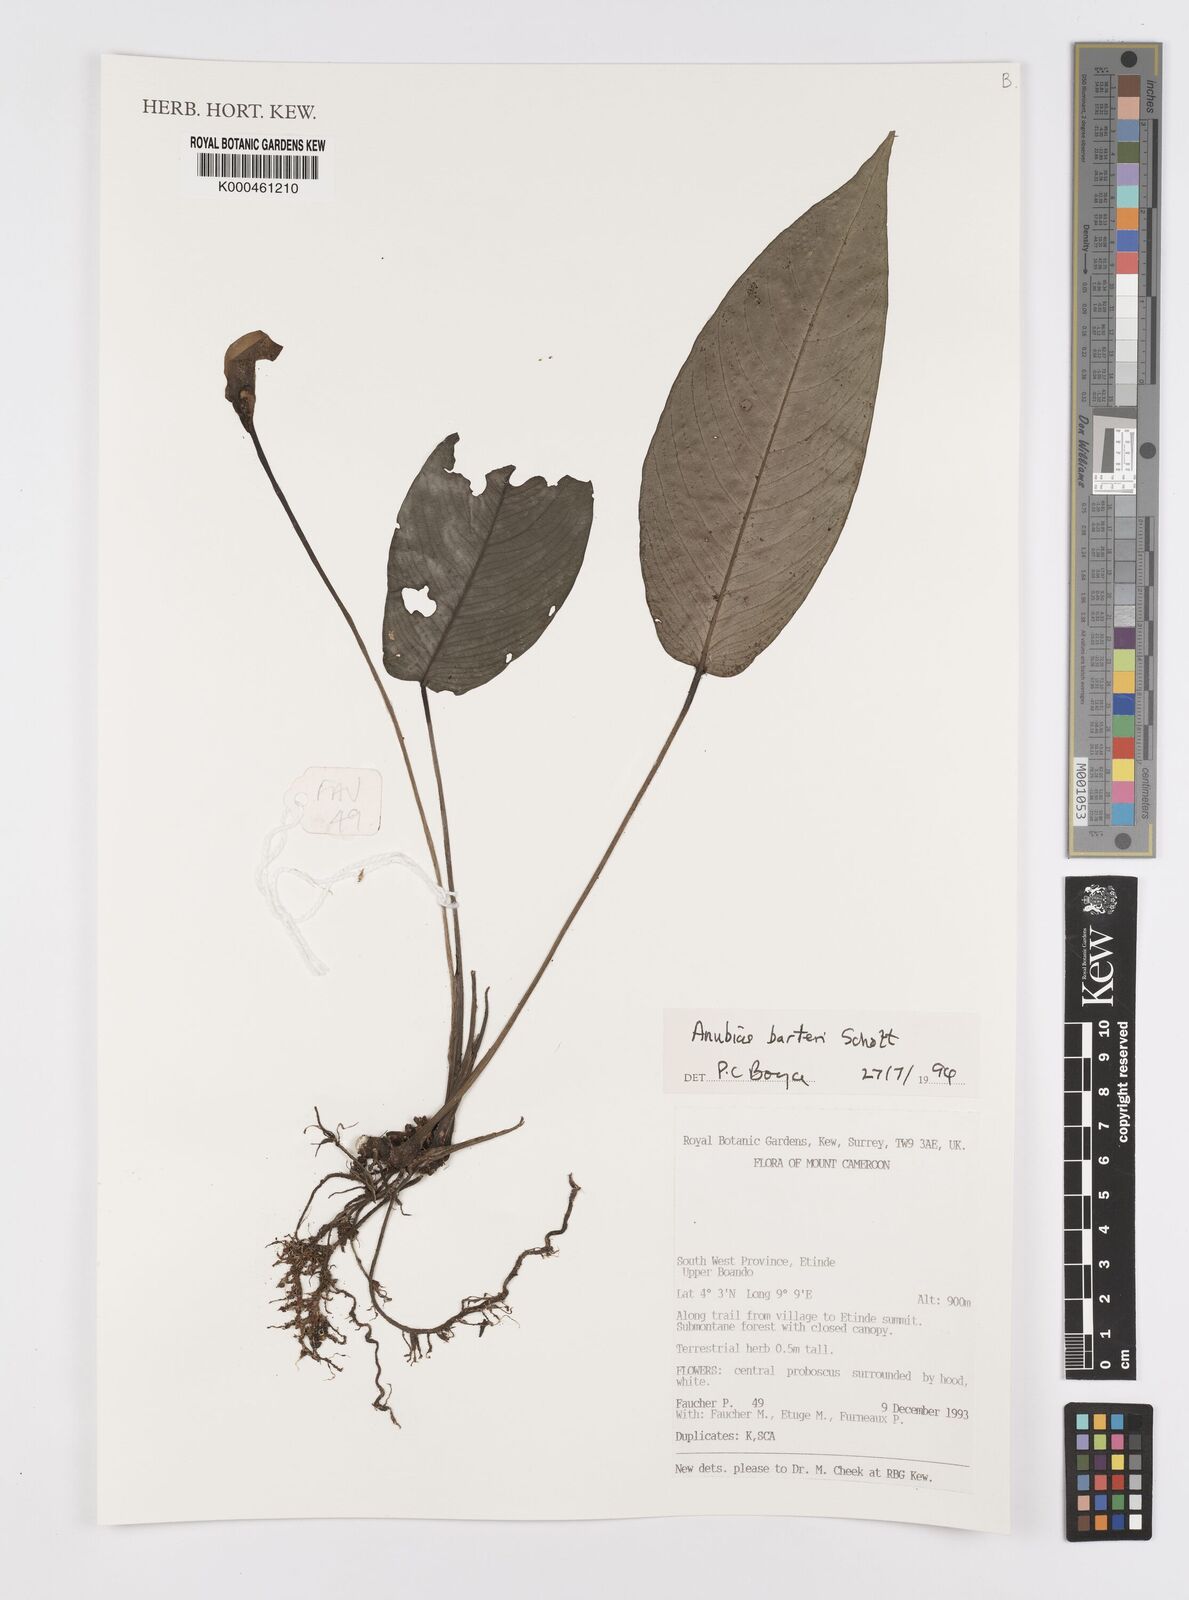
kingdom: Plantae
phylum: Tracheophyta
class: Liliopsida
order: Alismatales
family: Araceae
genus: Anubias
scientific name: Anubias barteri
